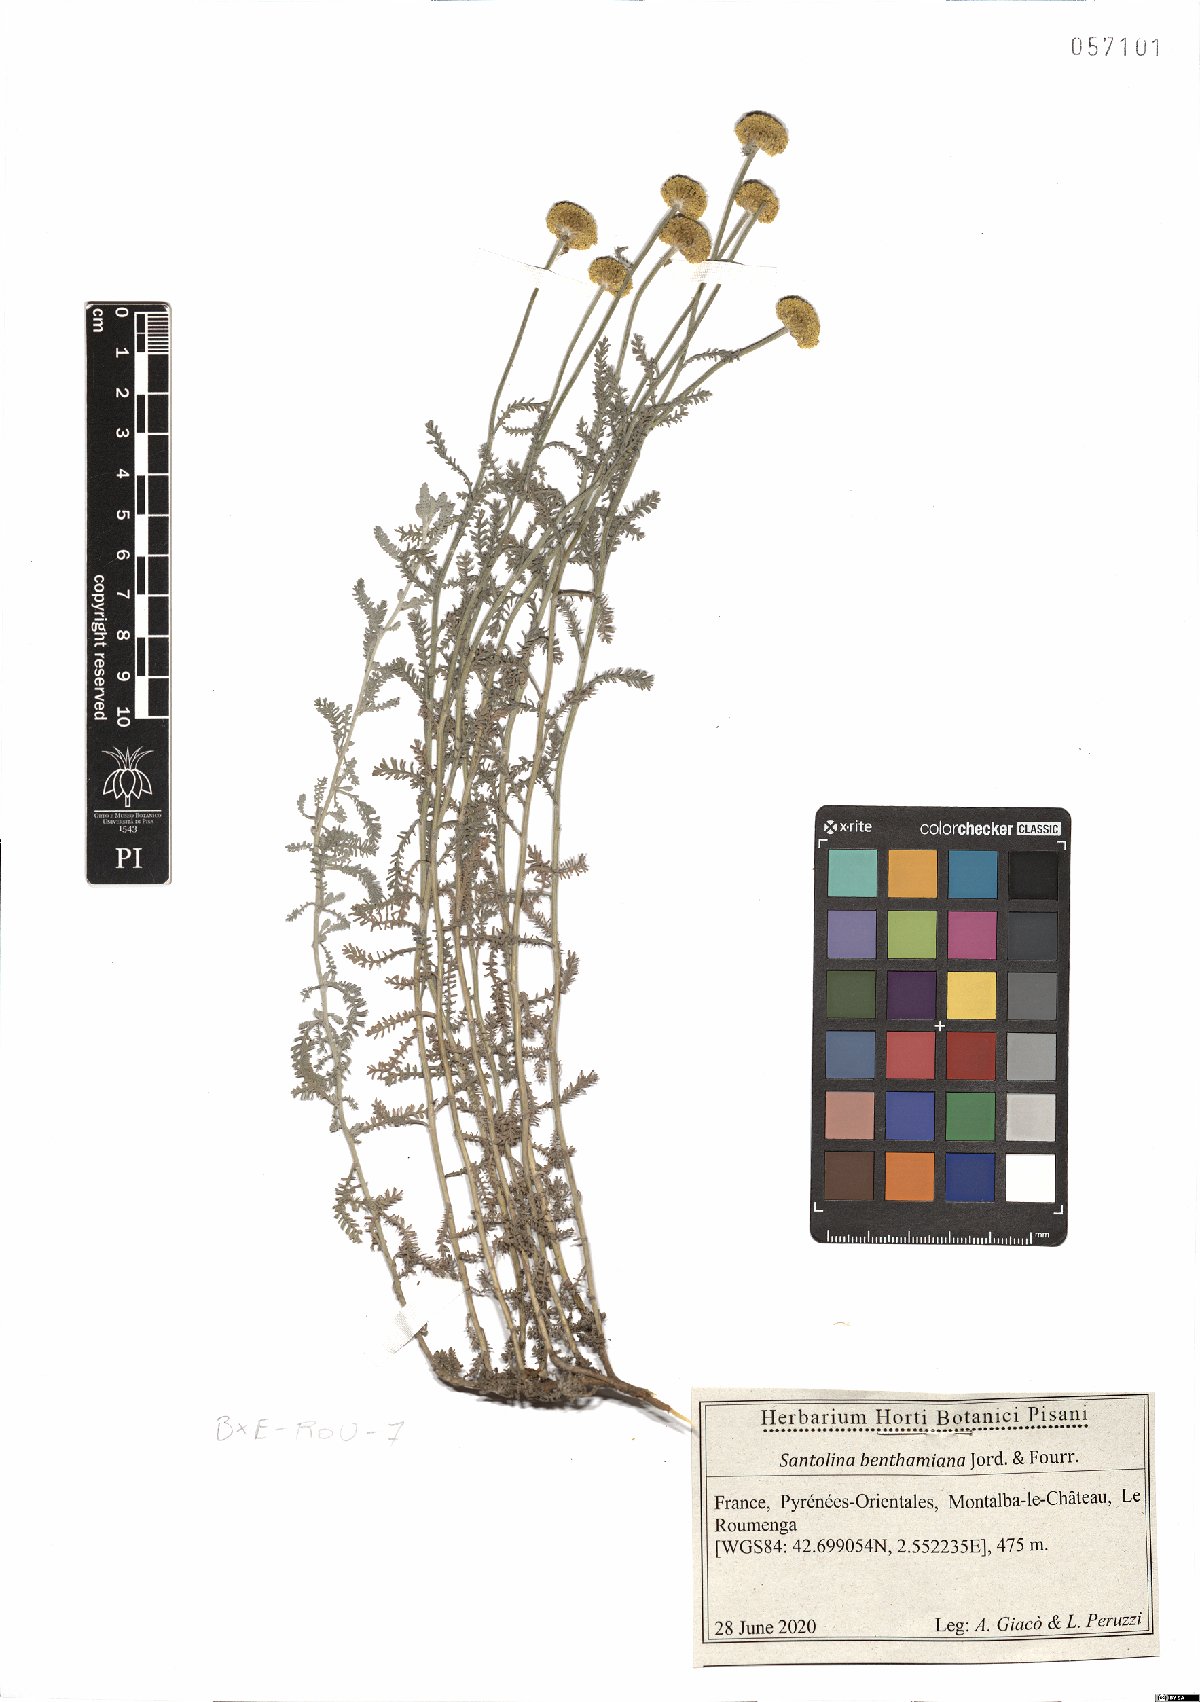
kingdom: Plantae
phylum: Tracheophyta
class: Magnoliopsida
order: Asterales
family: Asteraceae
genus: Santolina
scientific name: Santolina benthamiana
